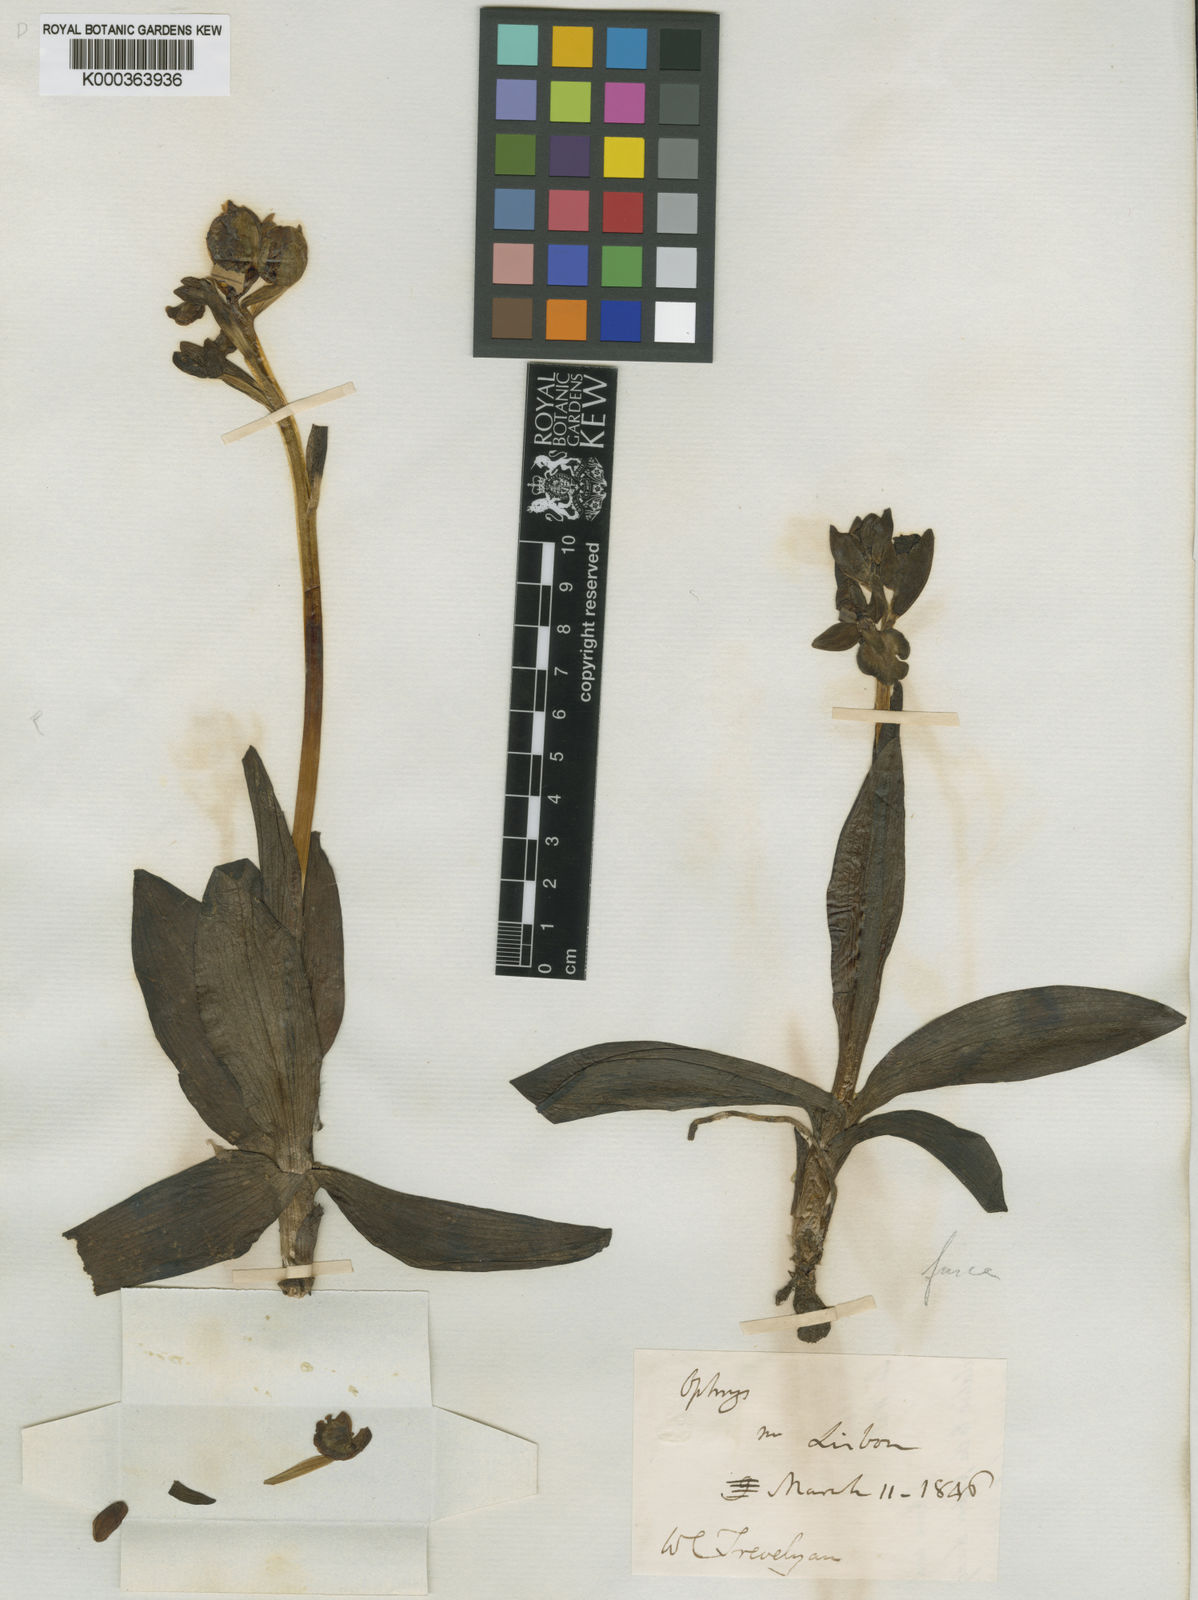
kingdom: Plantae
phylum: Tracheophyta
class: Liliopsida
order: Asparagales
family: Orchidaceae
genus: Ophrys
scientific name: Ophrys fusca
